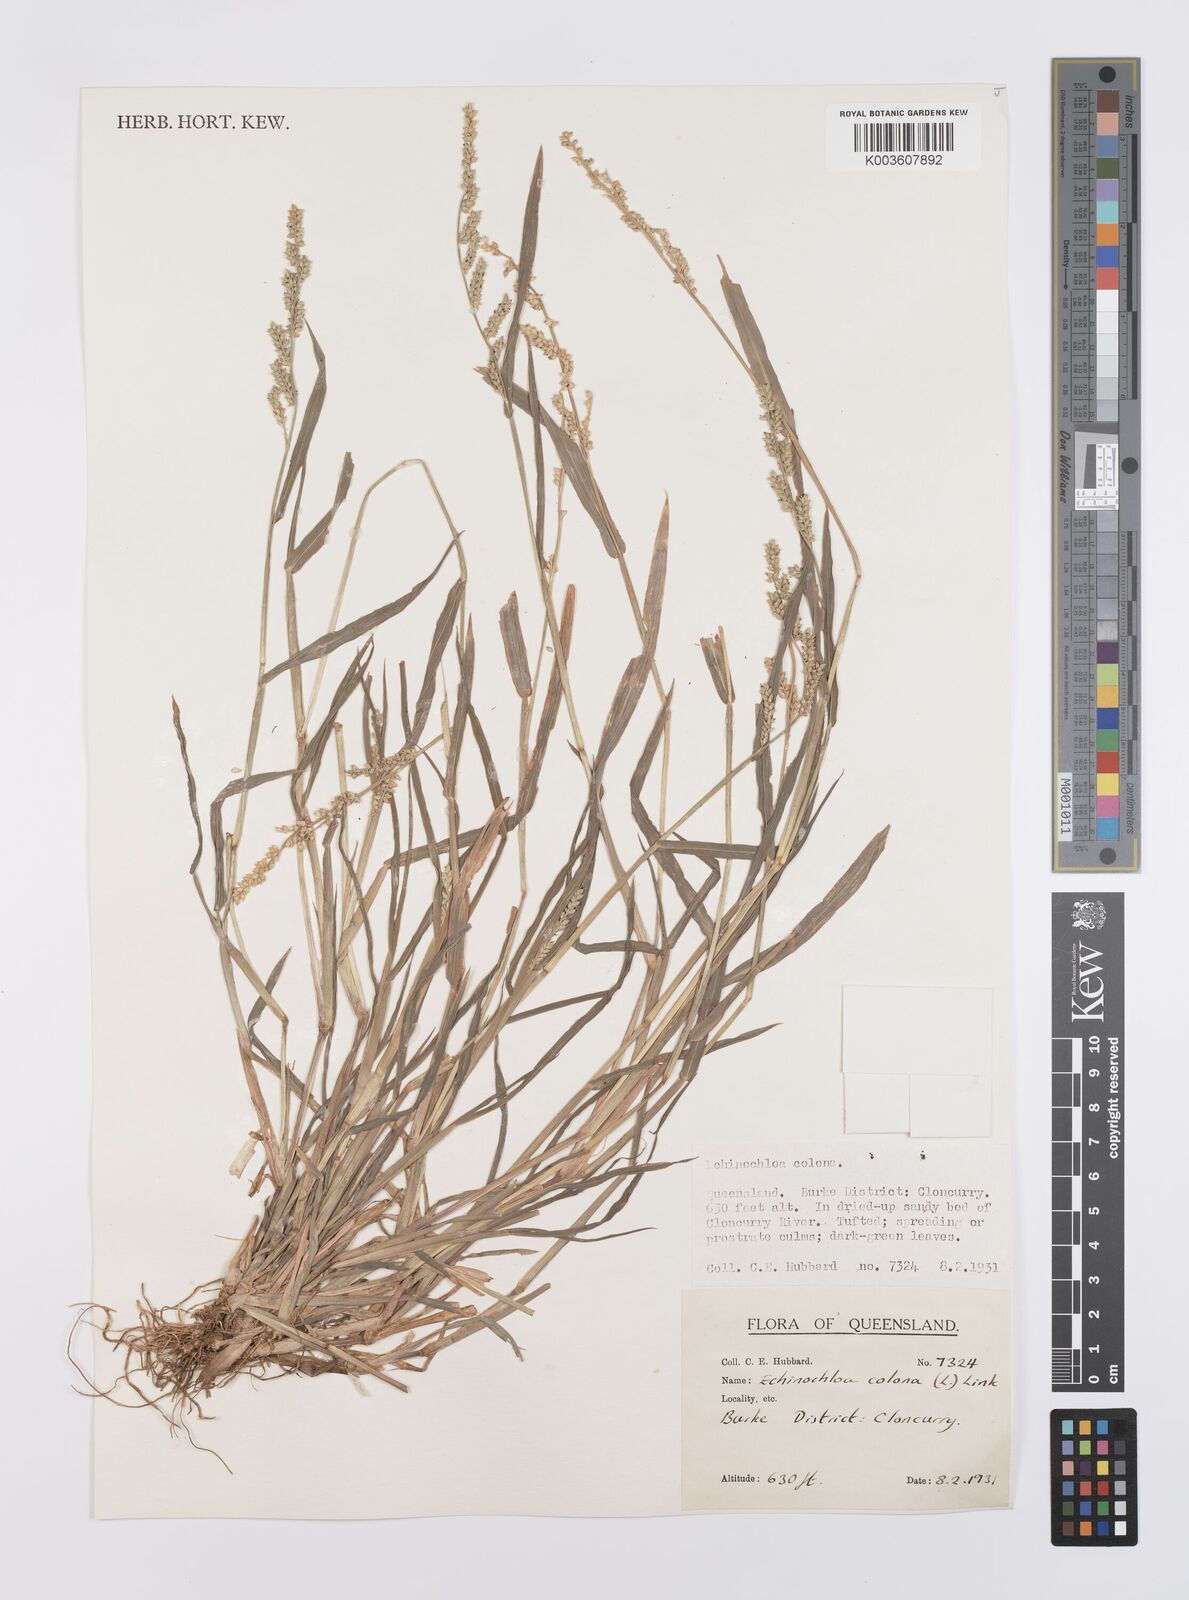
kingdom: Plantae
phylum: Tracheophyta
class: Liliopsida
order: Poales
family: Poaceae
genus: Echinochloa
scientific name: Echinochloa colonum
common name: Jungle rice
